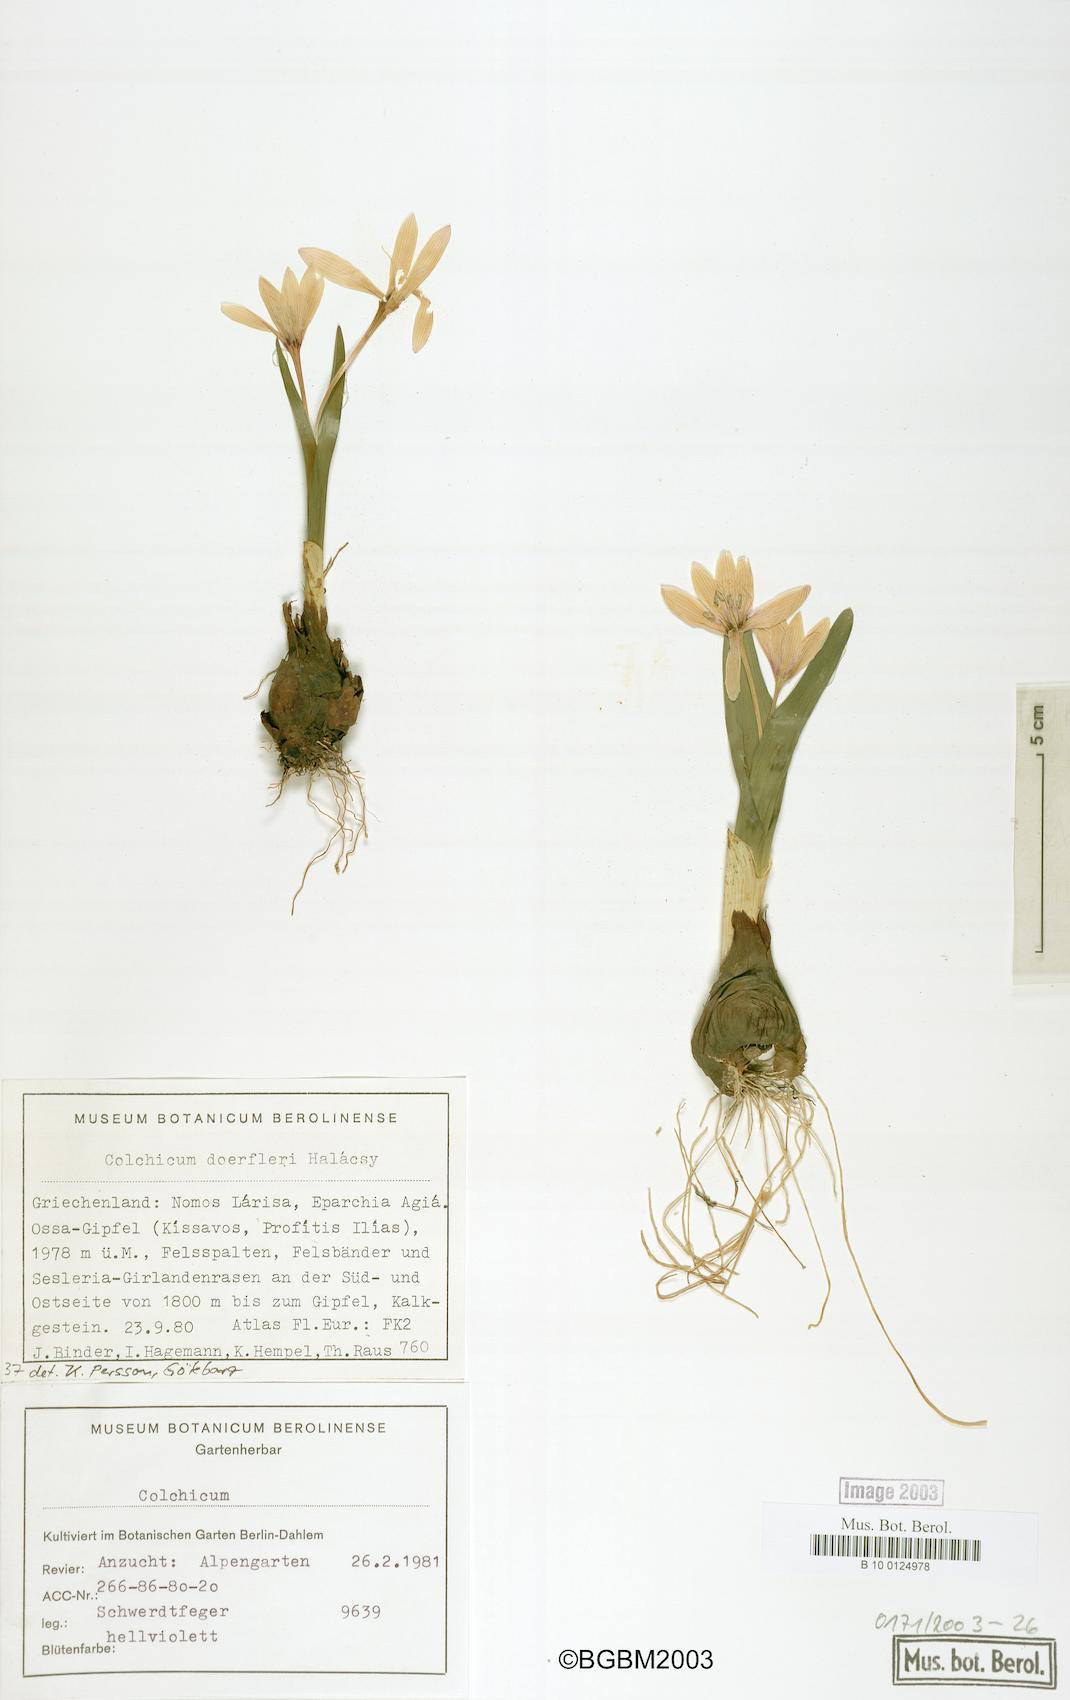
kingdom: Plantae
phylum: Tracheophyta
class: Liliopsida
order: Liliales
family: Colchicaceae
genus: Colchicum
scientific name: Colchicum doerfleri
